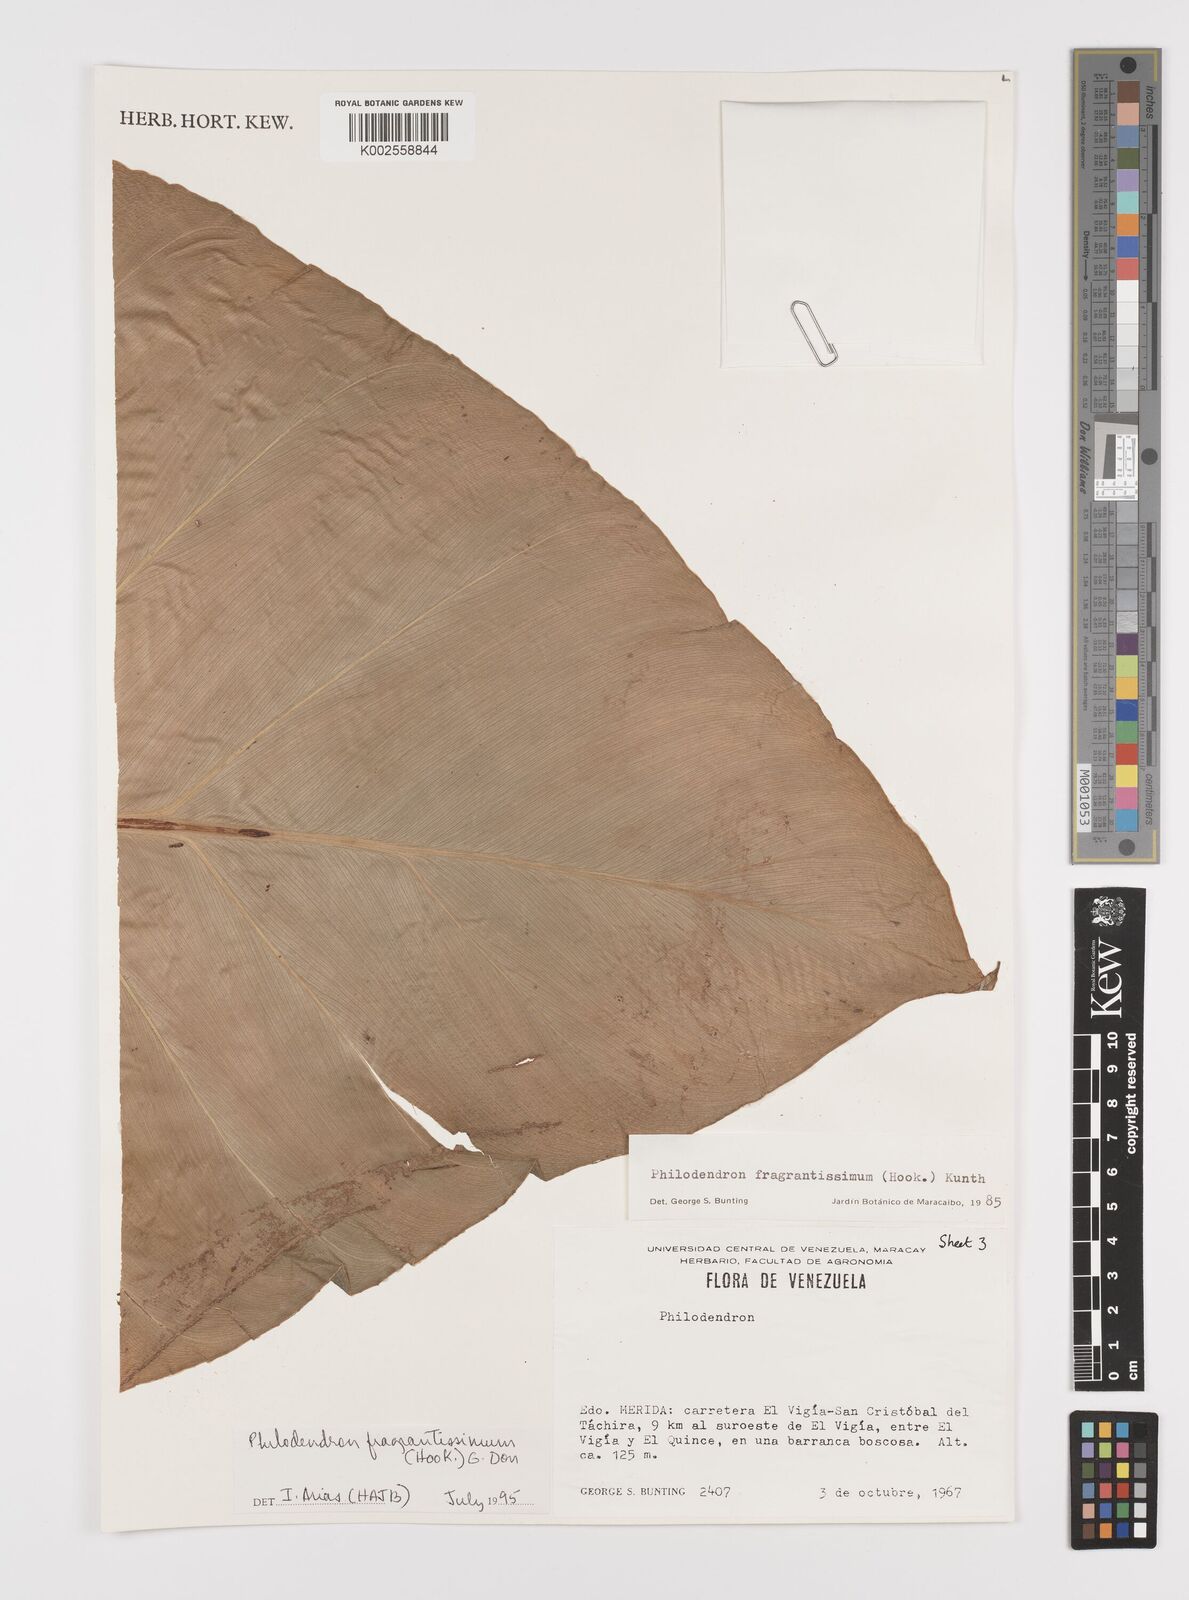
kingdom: Plantae
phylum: Tracheophyta
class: Liliopsida
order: Alismatales
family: Araceae
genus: Philodendron
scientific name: Philodendron fragrantissimum
